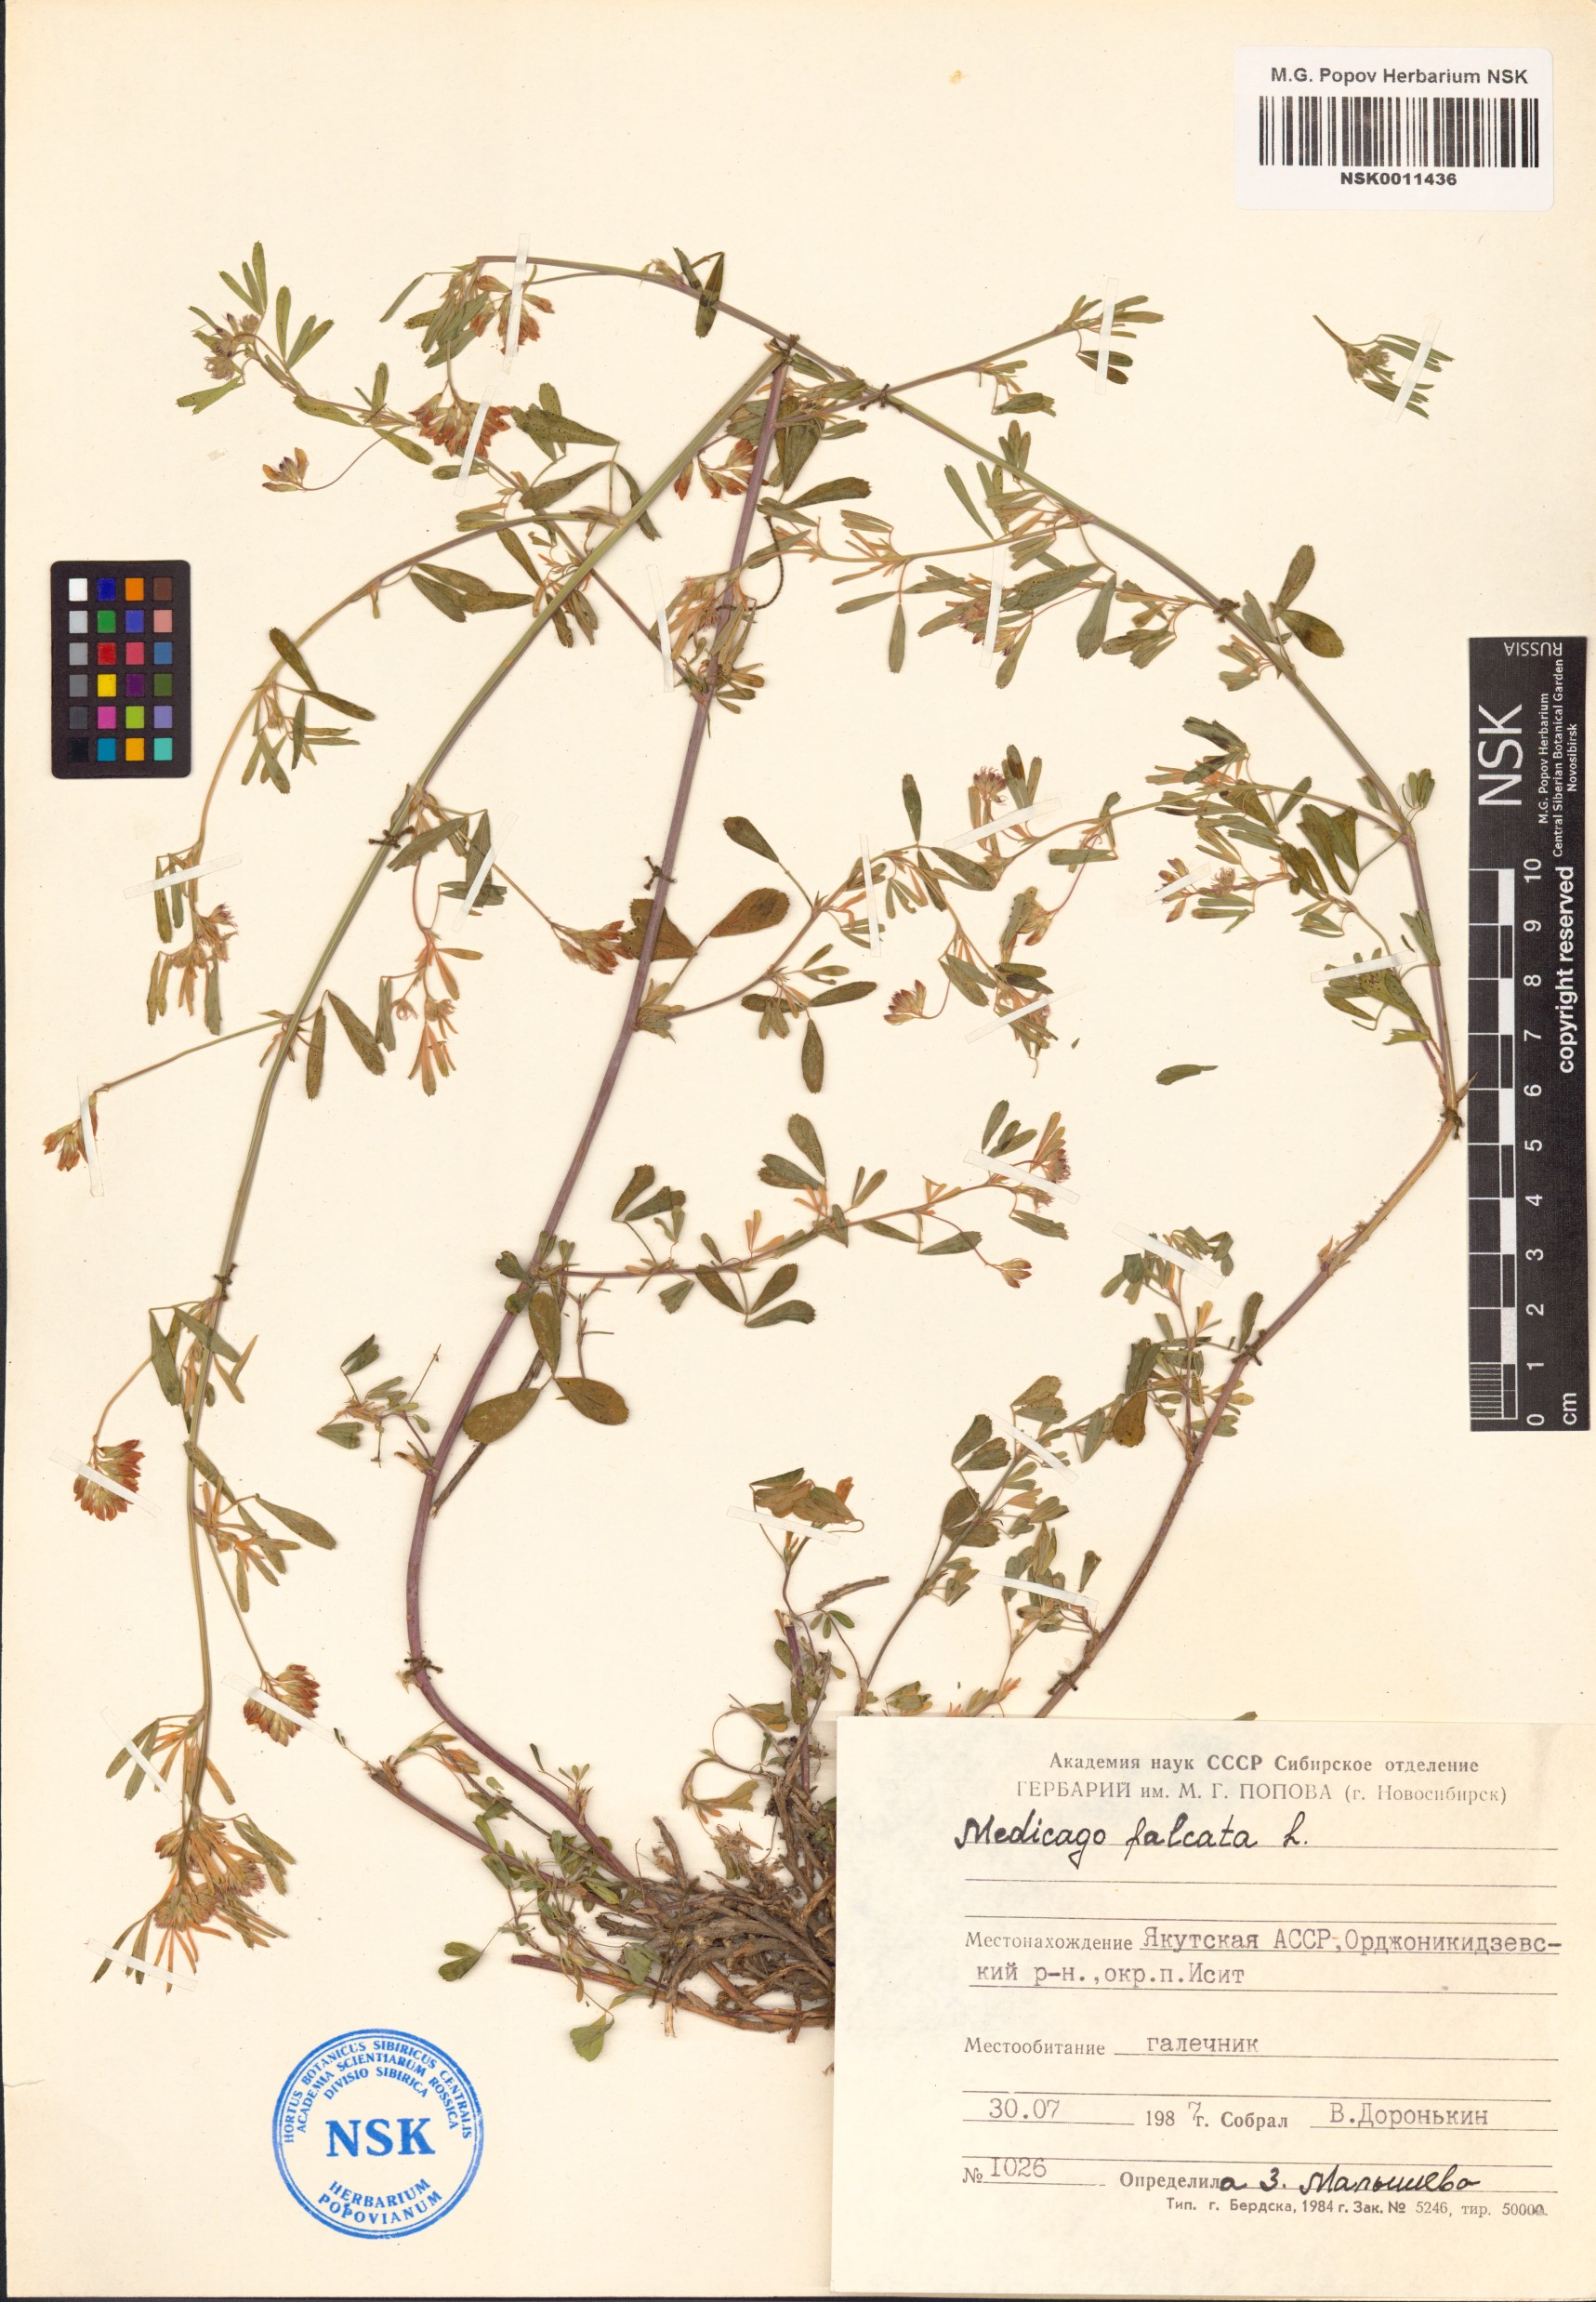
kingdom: Plantae
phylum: Tracheophyta
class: Magnoliopsida
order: Fabales
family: Fabaceae
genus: Medicago
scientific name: Medicago falcata
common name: Sickle medick
